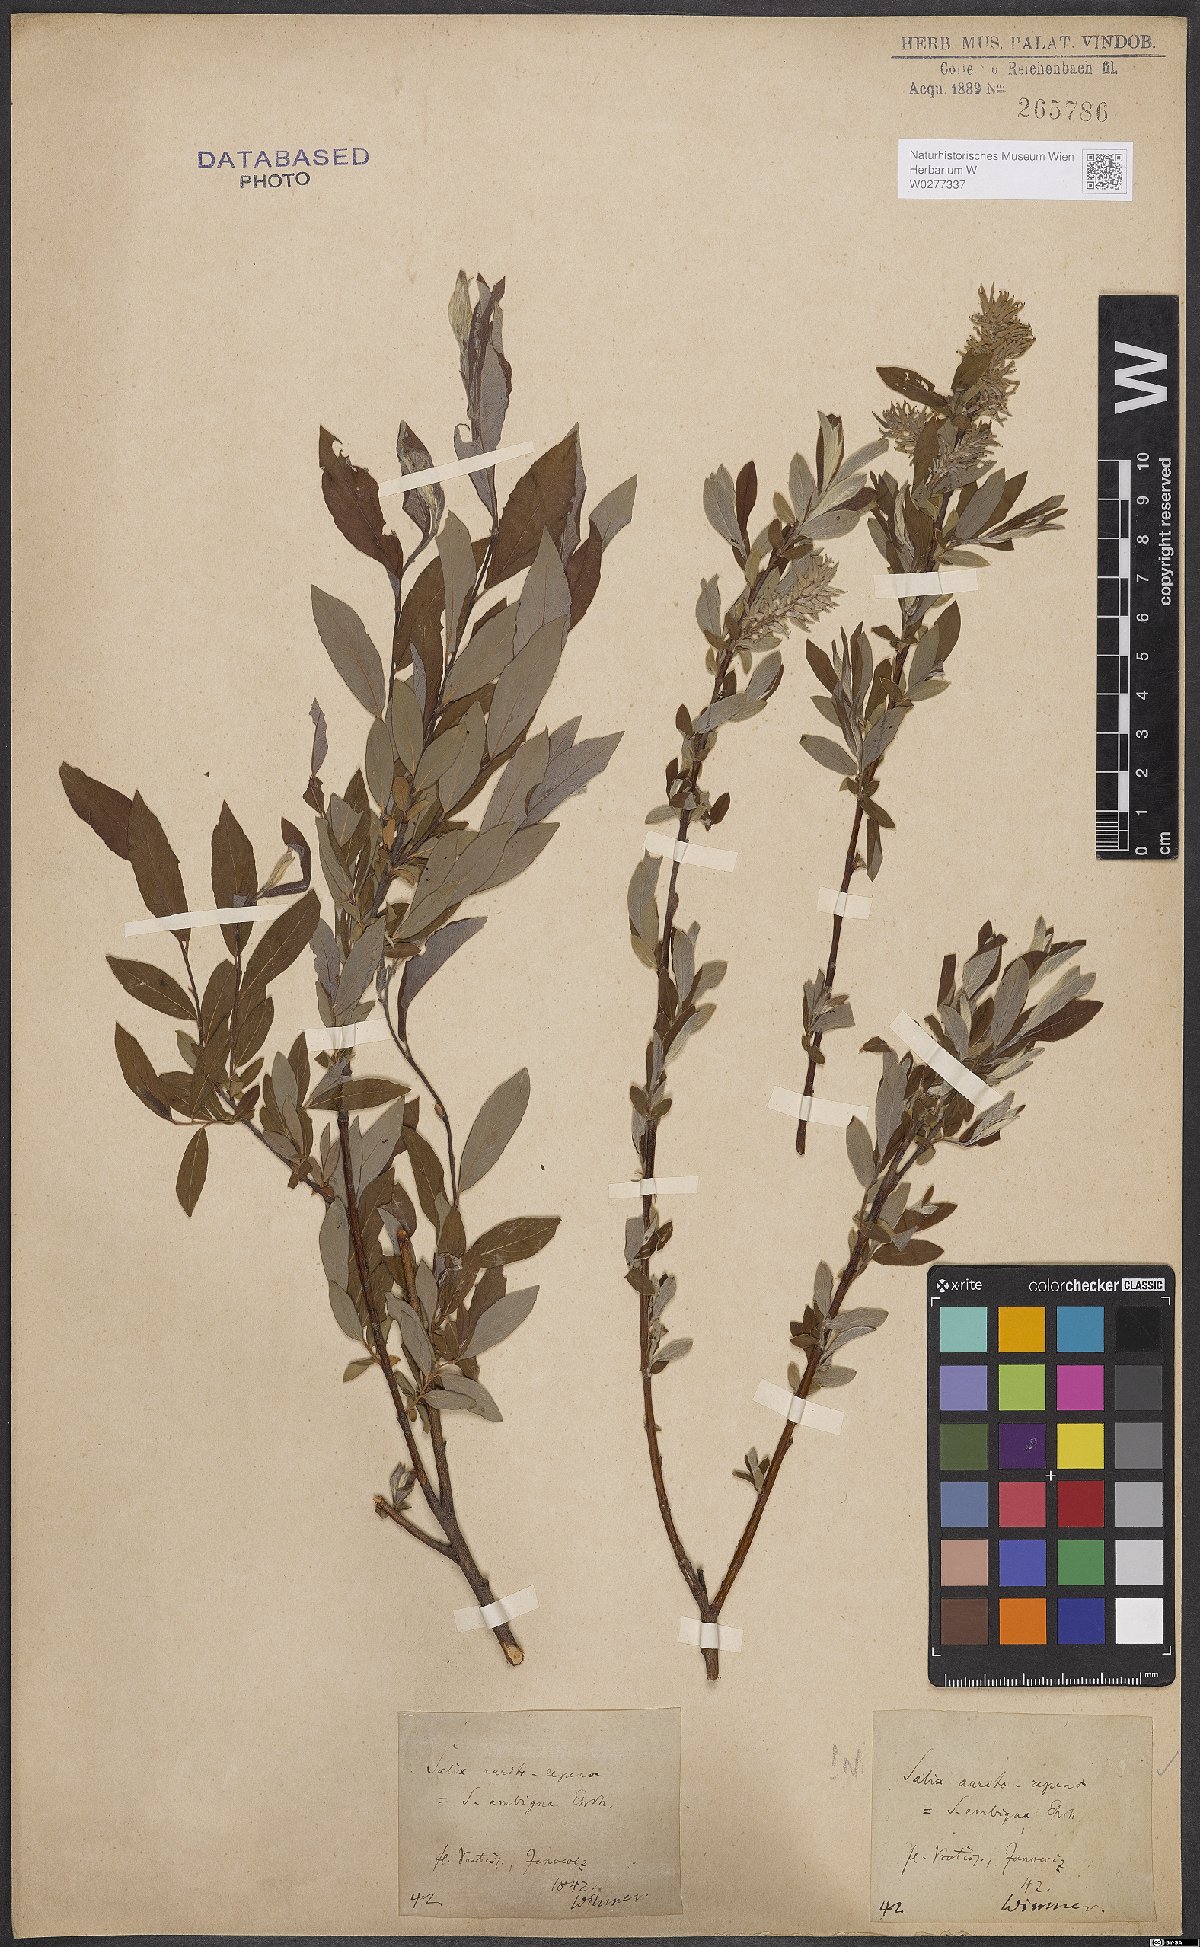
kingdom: Plantae
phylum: Tracheophyta
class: Magnoliopsida
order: Malpighiales
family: Salicaceae
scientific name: Salicaceae
